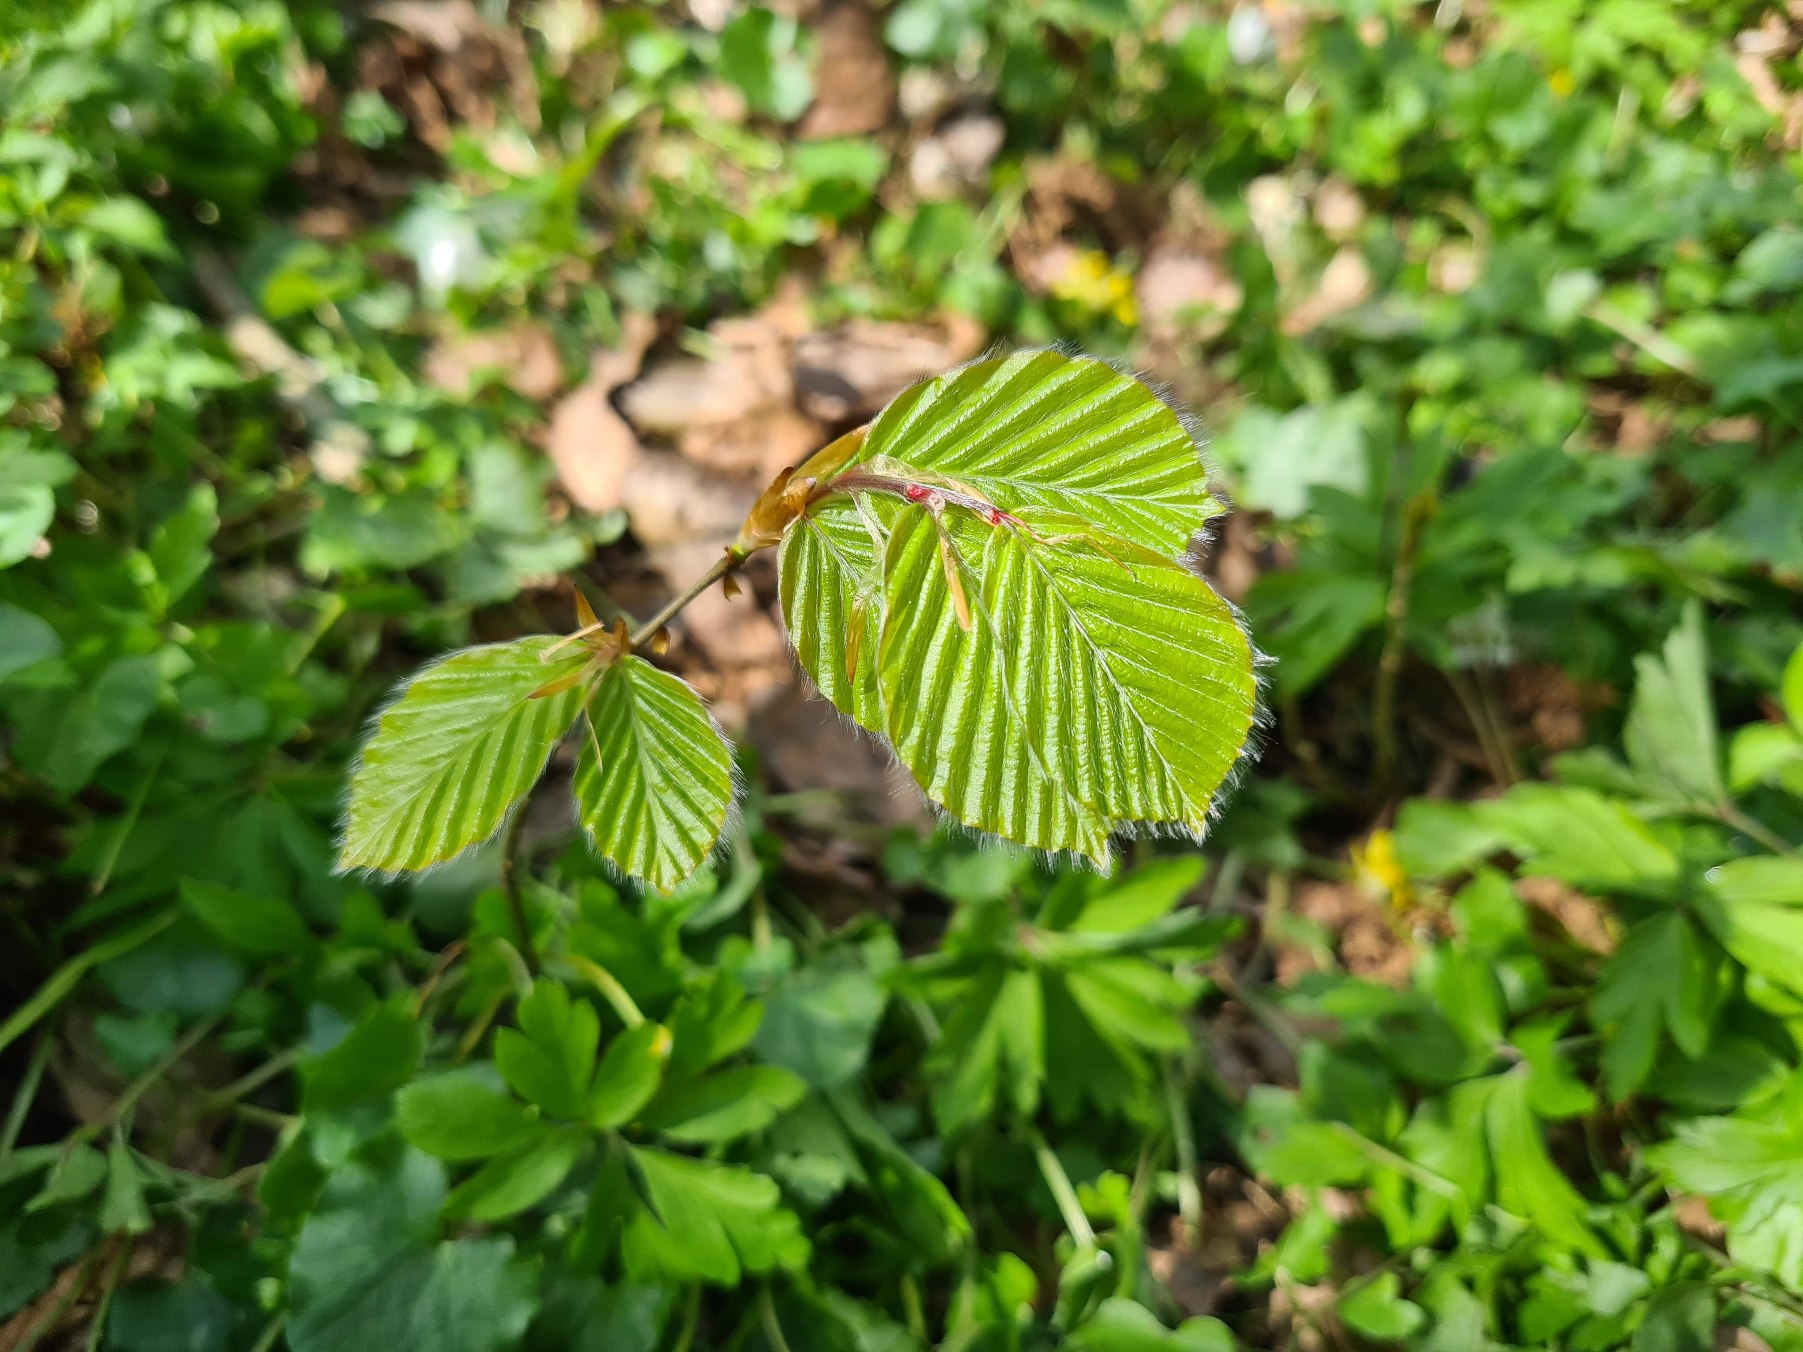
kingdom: Plantae
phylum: Tracheophyta
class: Magnoliopsida
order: Fagales
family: Fagaceae
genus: Fagus
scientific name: Fagus sylvatica
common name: Bøg
